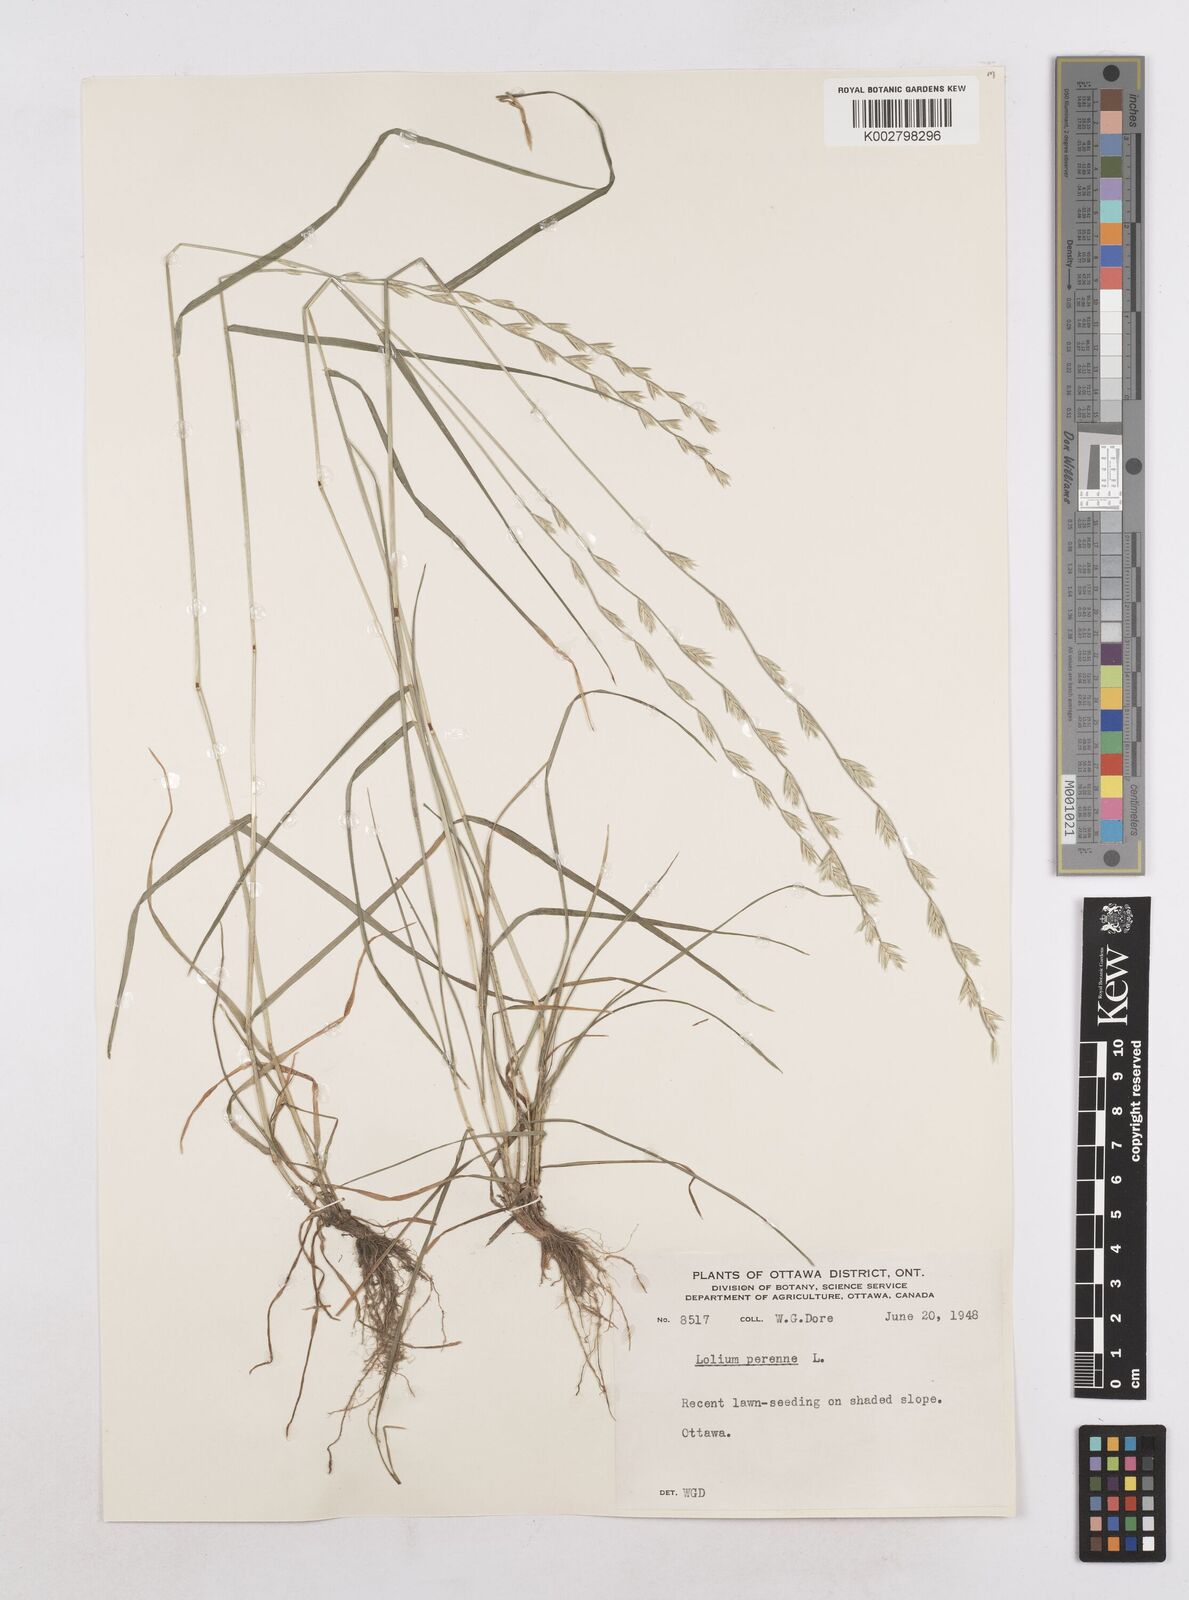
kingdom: Plantae
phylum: Tracheophyta
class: Liliopsida
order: Poales
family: Poaceae
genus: Lolium
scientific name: Lolium perenne
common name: Perennial ryegrass
